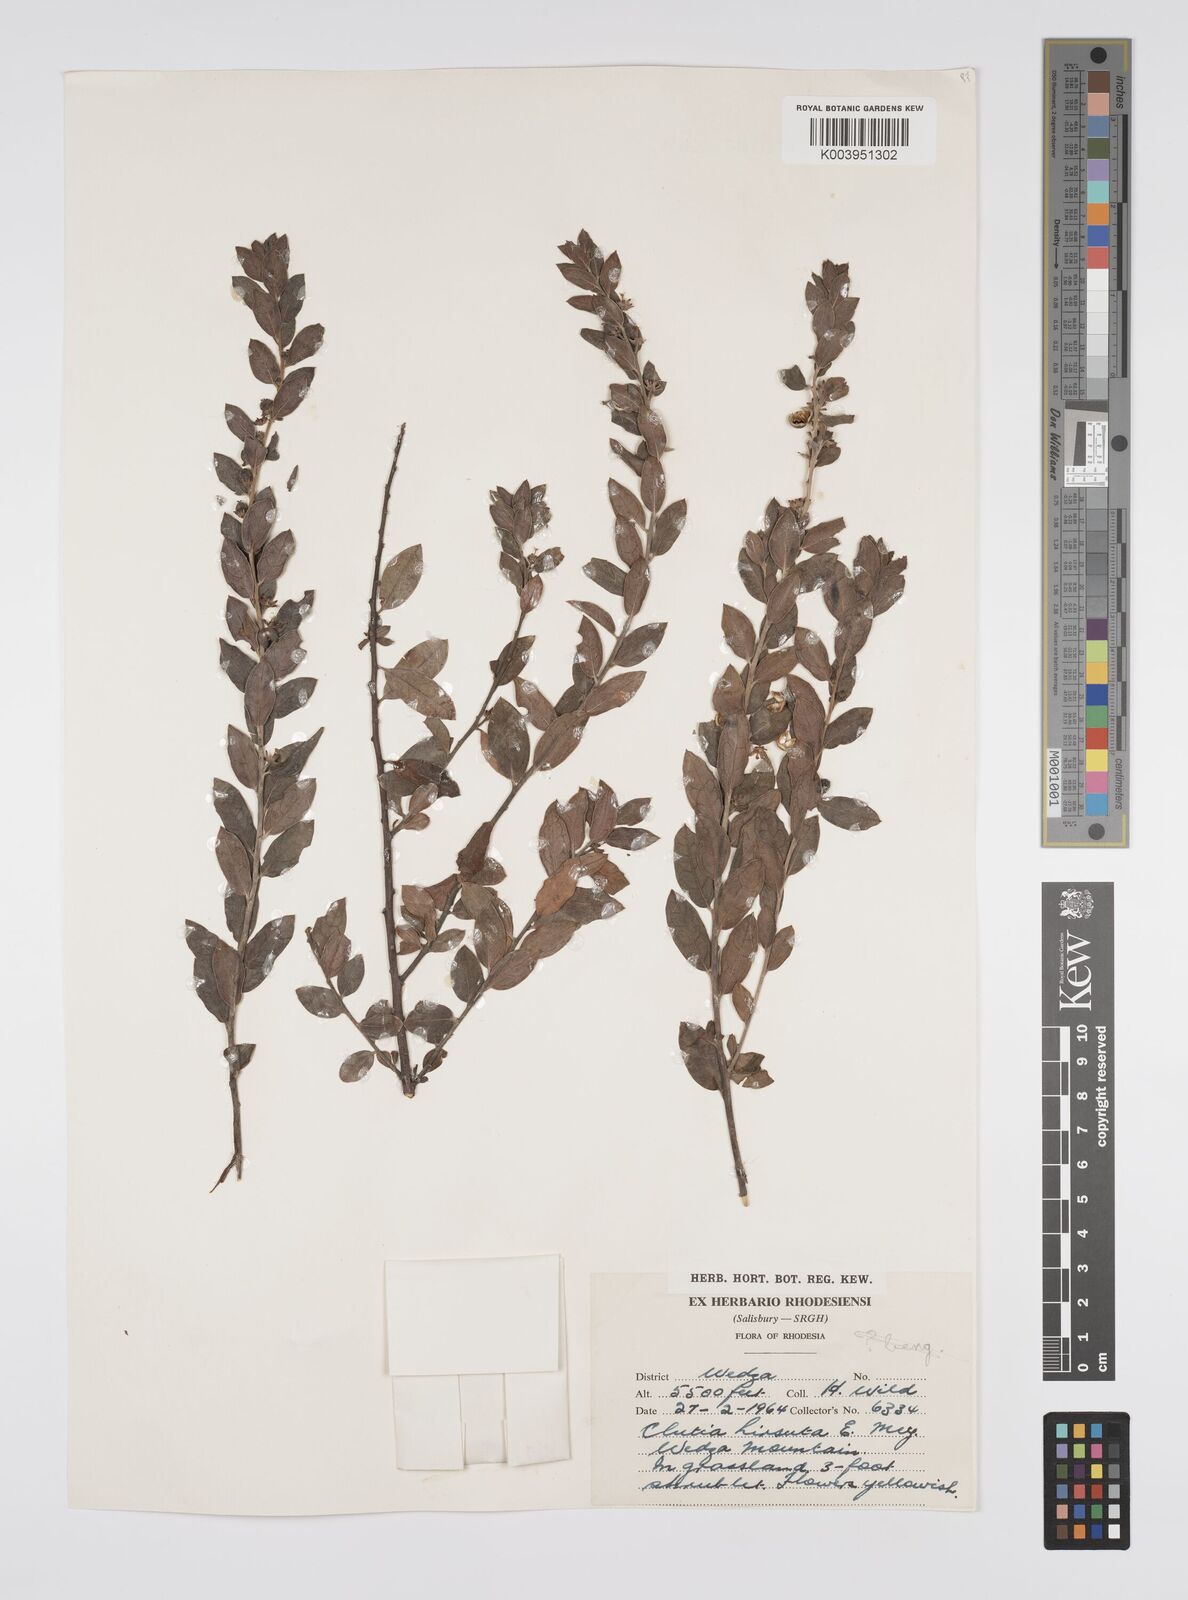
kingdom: Plantae
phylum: Tracheophyta
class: Magnoliopsida
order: Malpighiales
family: Peraceae
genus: Clutia
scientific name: Clutia hirsuta
